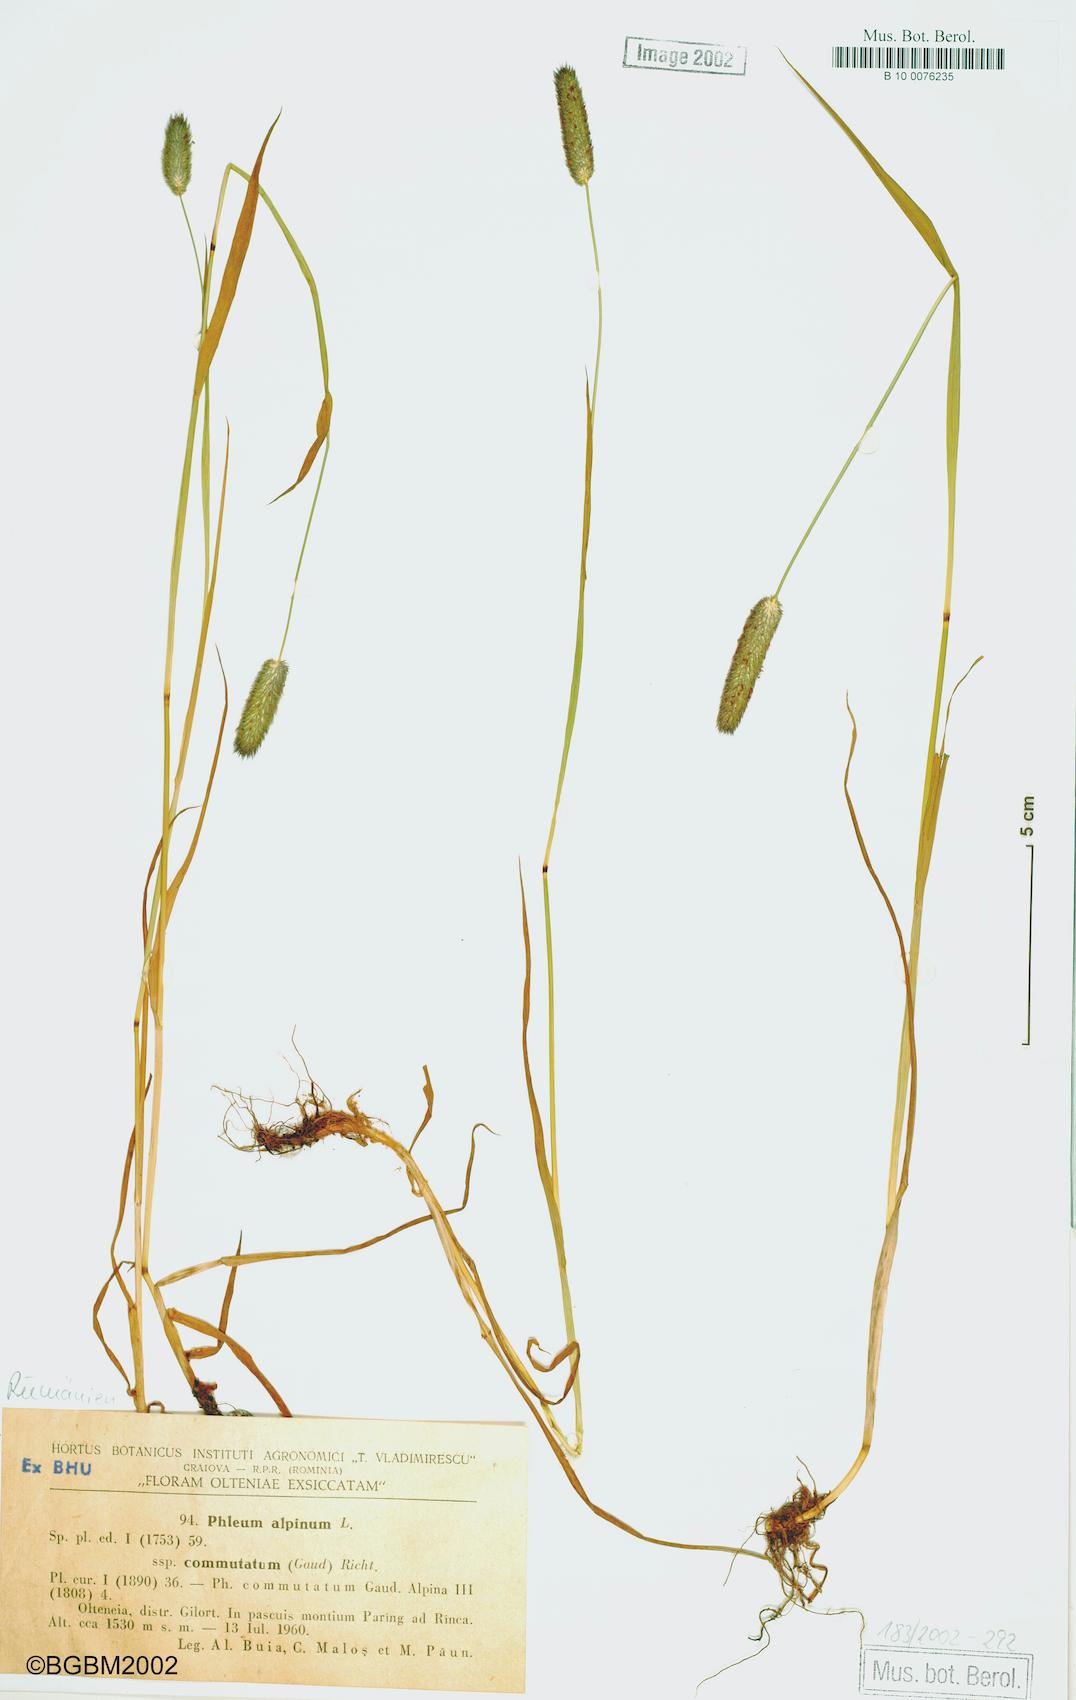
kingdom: Plantae
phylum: Tracheophyta
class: Liliopsida
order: Poales
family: Poaceae
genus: Phleum
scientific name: Phleum alpinum
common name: Alpine cat's-tail
